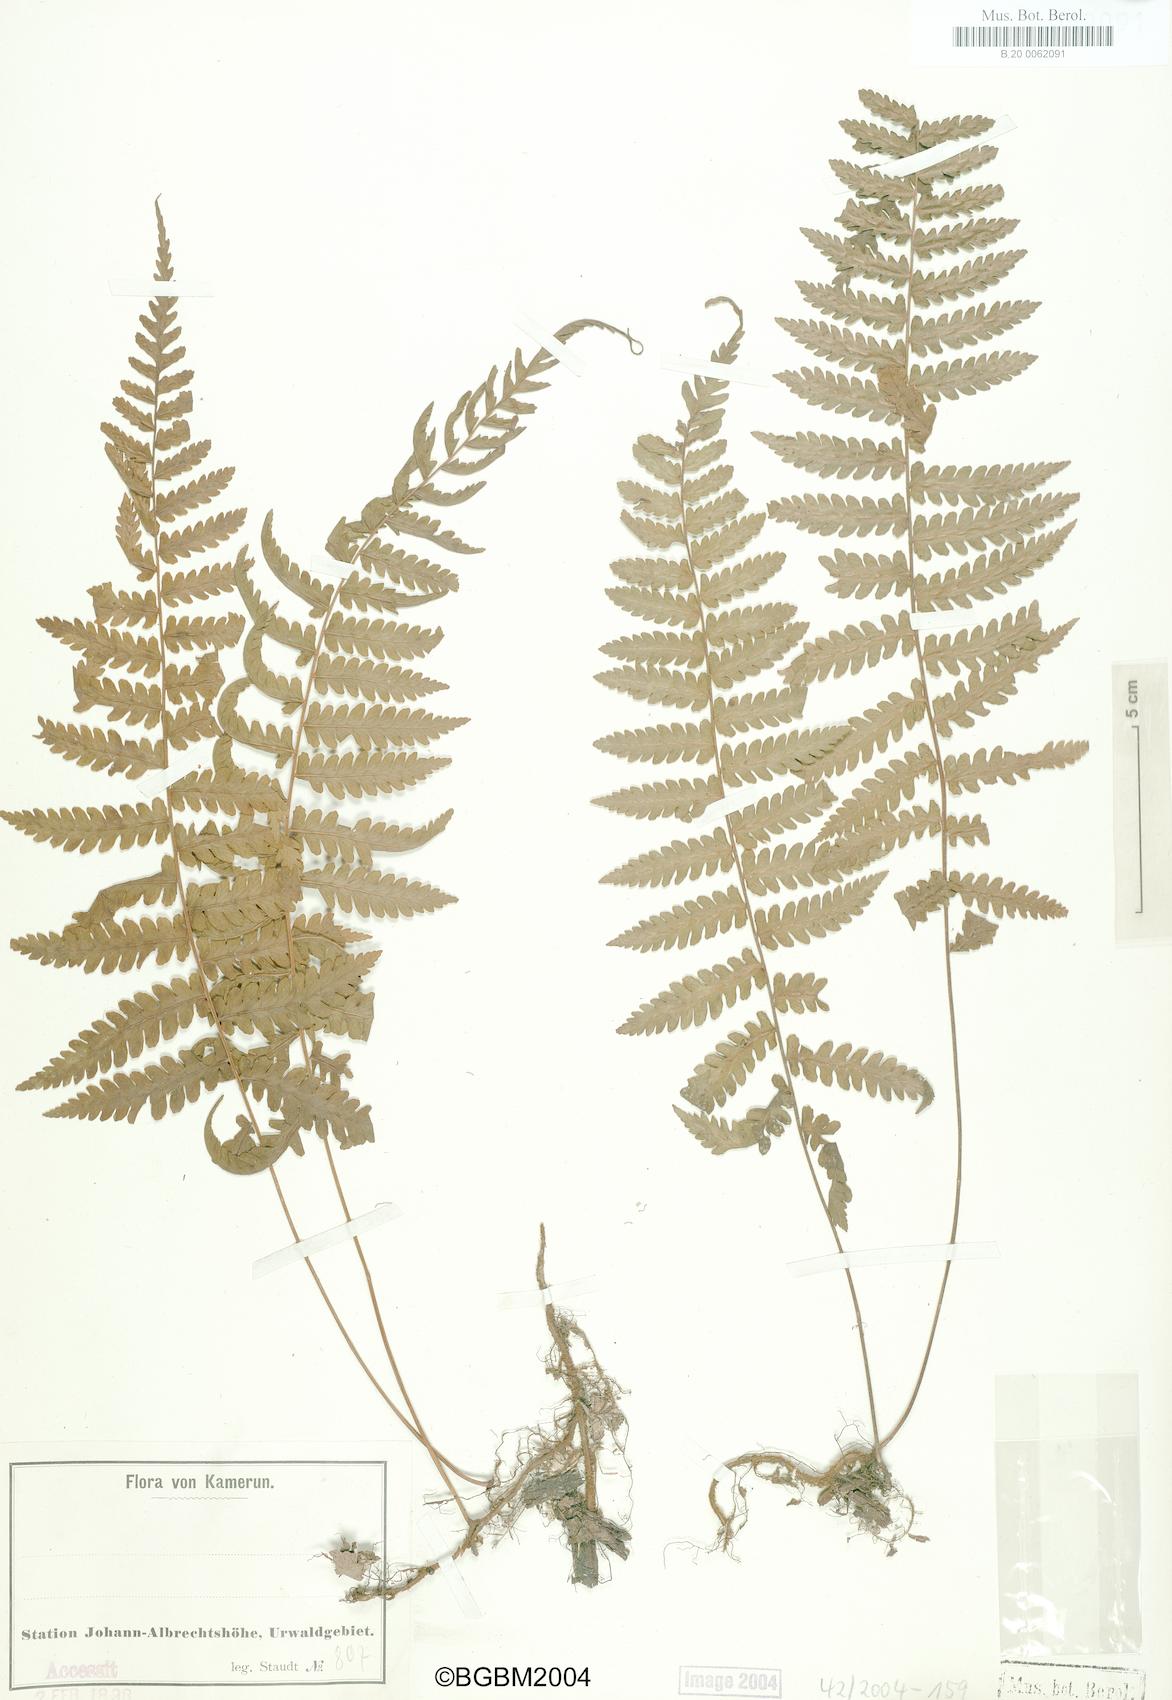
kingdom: Plantae
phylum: Tracheophyta
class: Polypodiopsida
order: Polypodiales
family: Tectariaceae
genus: Arthropteris
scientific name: Arthropteris orientalis
